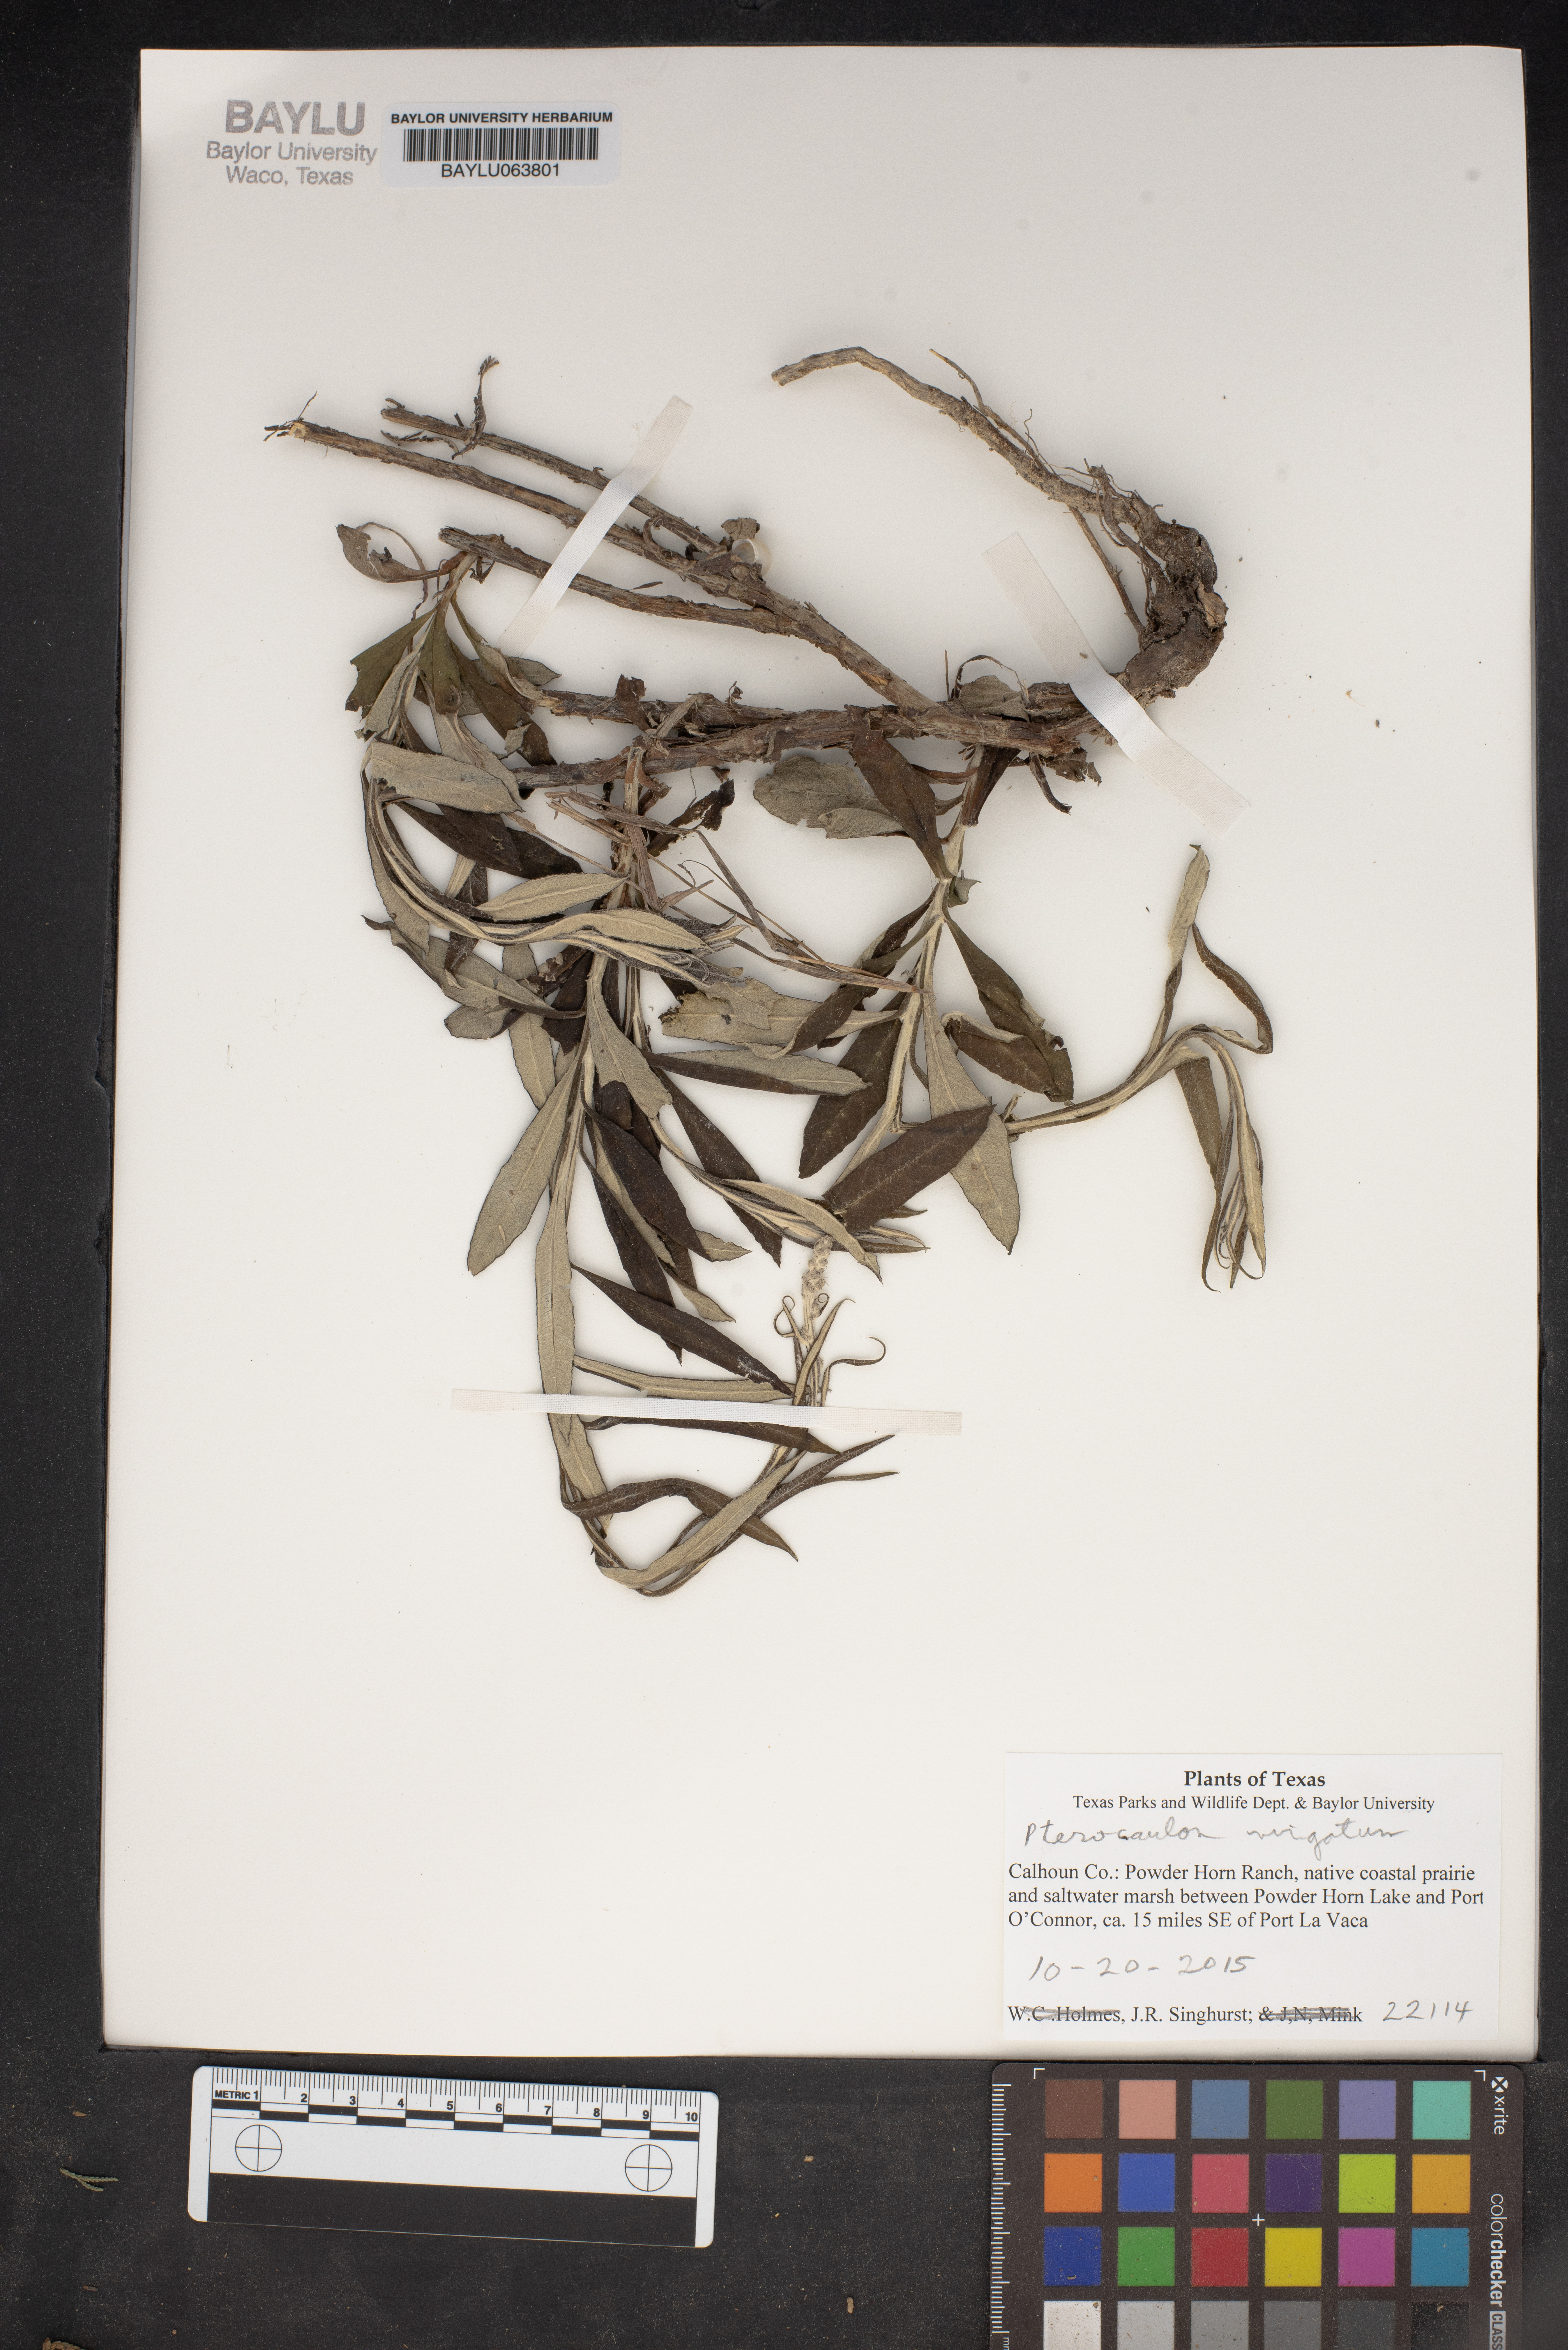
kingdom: Plantae
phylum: Tracheophyta
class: Magnoliopsida
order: Asterales
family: Asteraceae
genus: Pterocaulon
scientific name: Pterocaulon virgatum
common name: Wand blackroot
